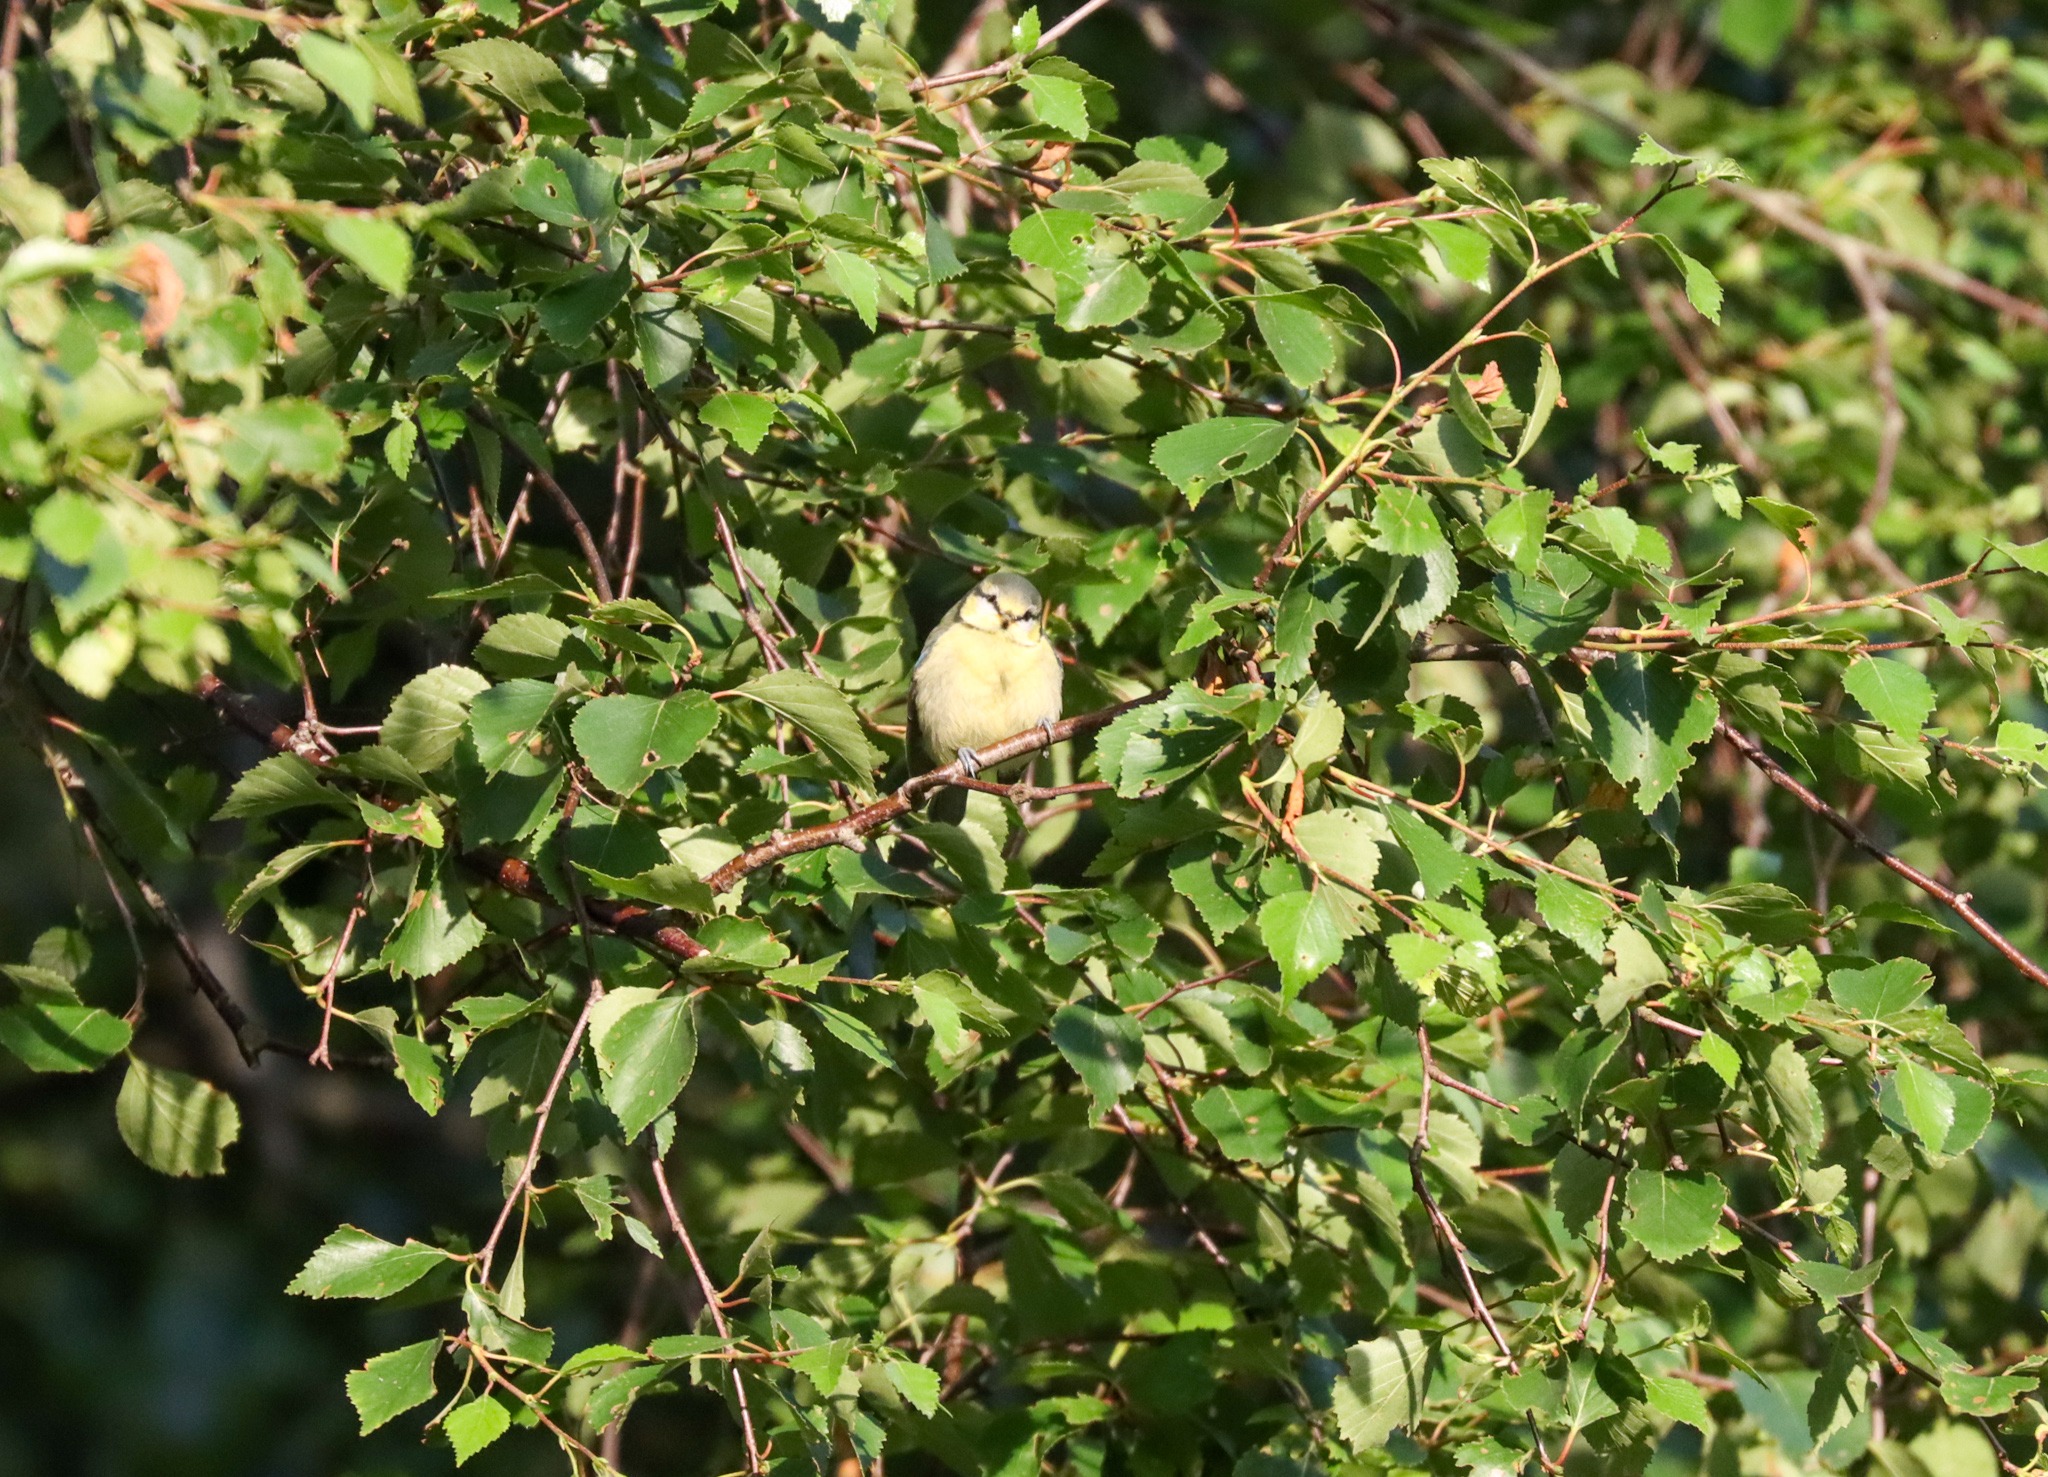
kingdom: Animalia
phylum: Chordata
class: Aves
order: Passeriformes
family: Paridae
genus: Cyanistes
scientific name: Cyanistes caeruleus
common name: Blåmejse
